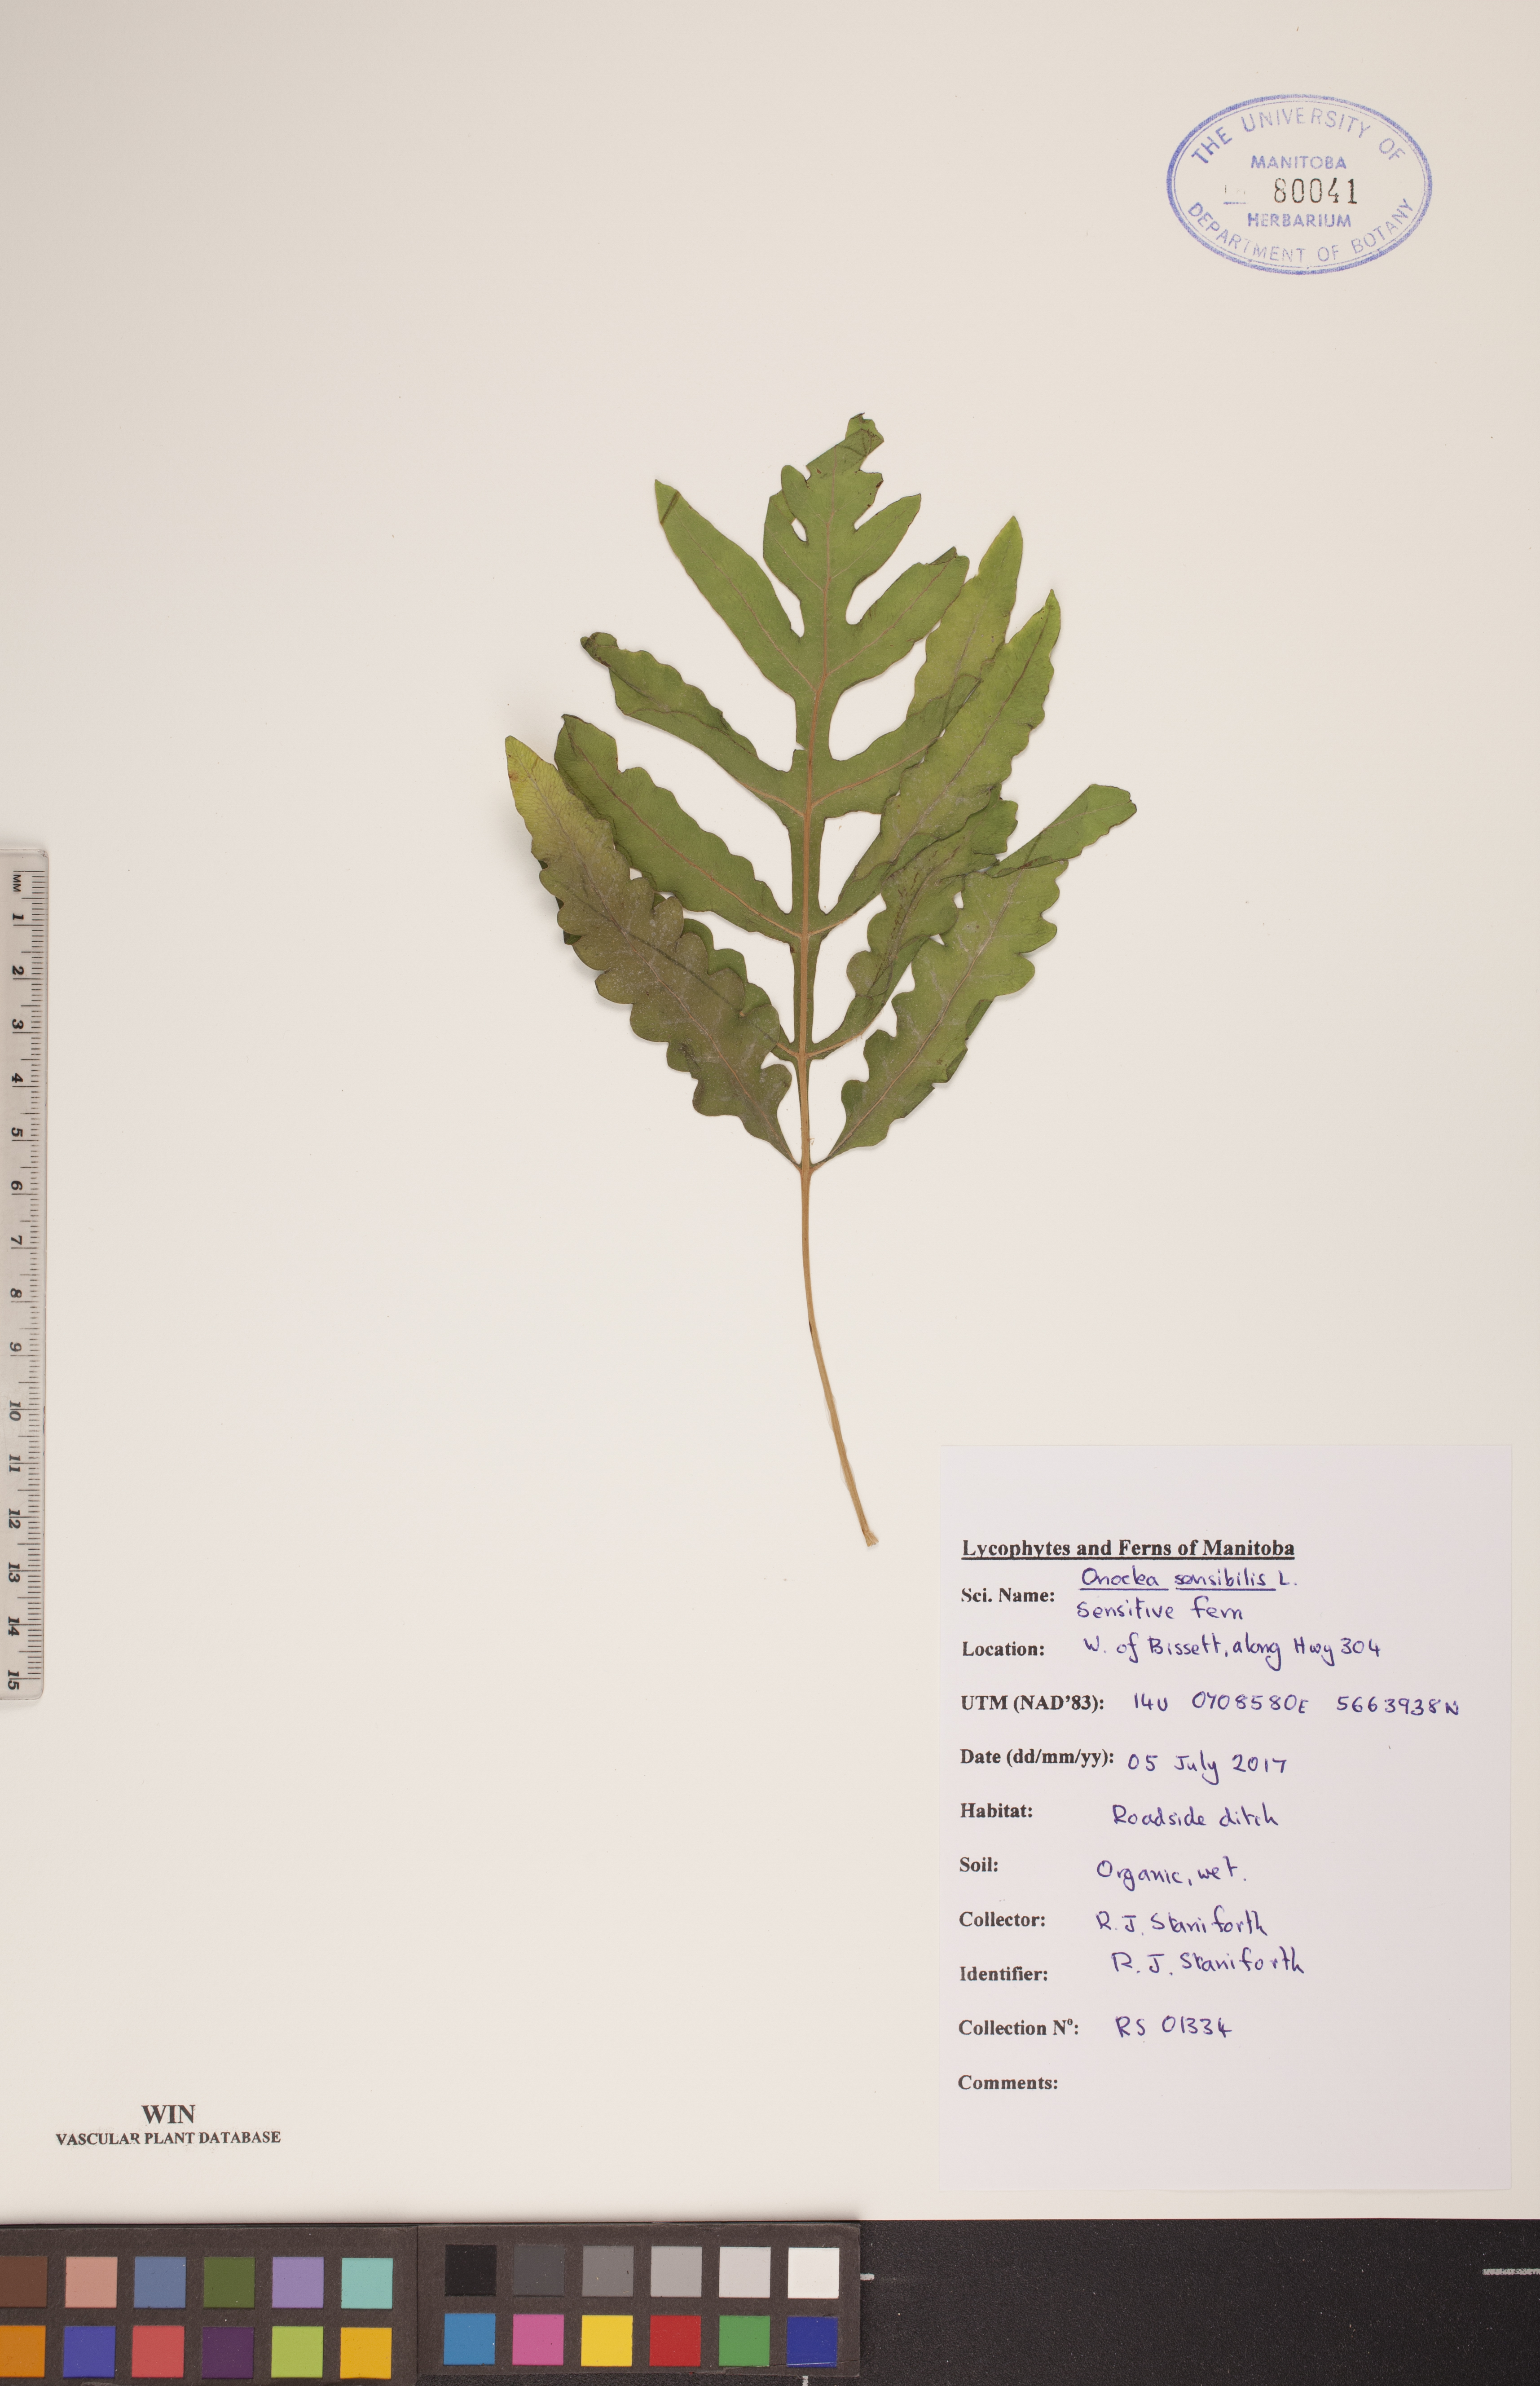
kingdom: Plantae
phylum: Tracheophyta
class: Polypodiopsida
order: Polypodiales
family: Onocleaceae
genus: Onoclea
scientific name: Onoclea sensibilis
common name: Sensitive fern
